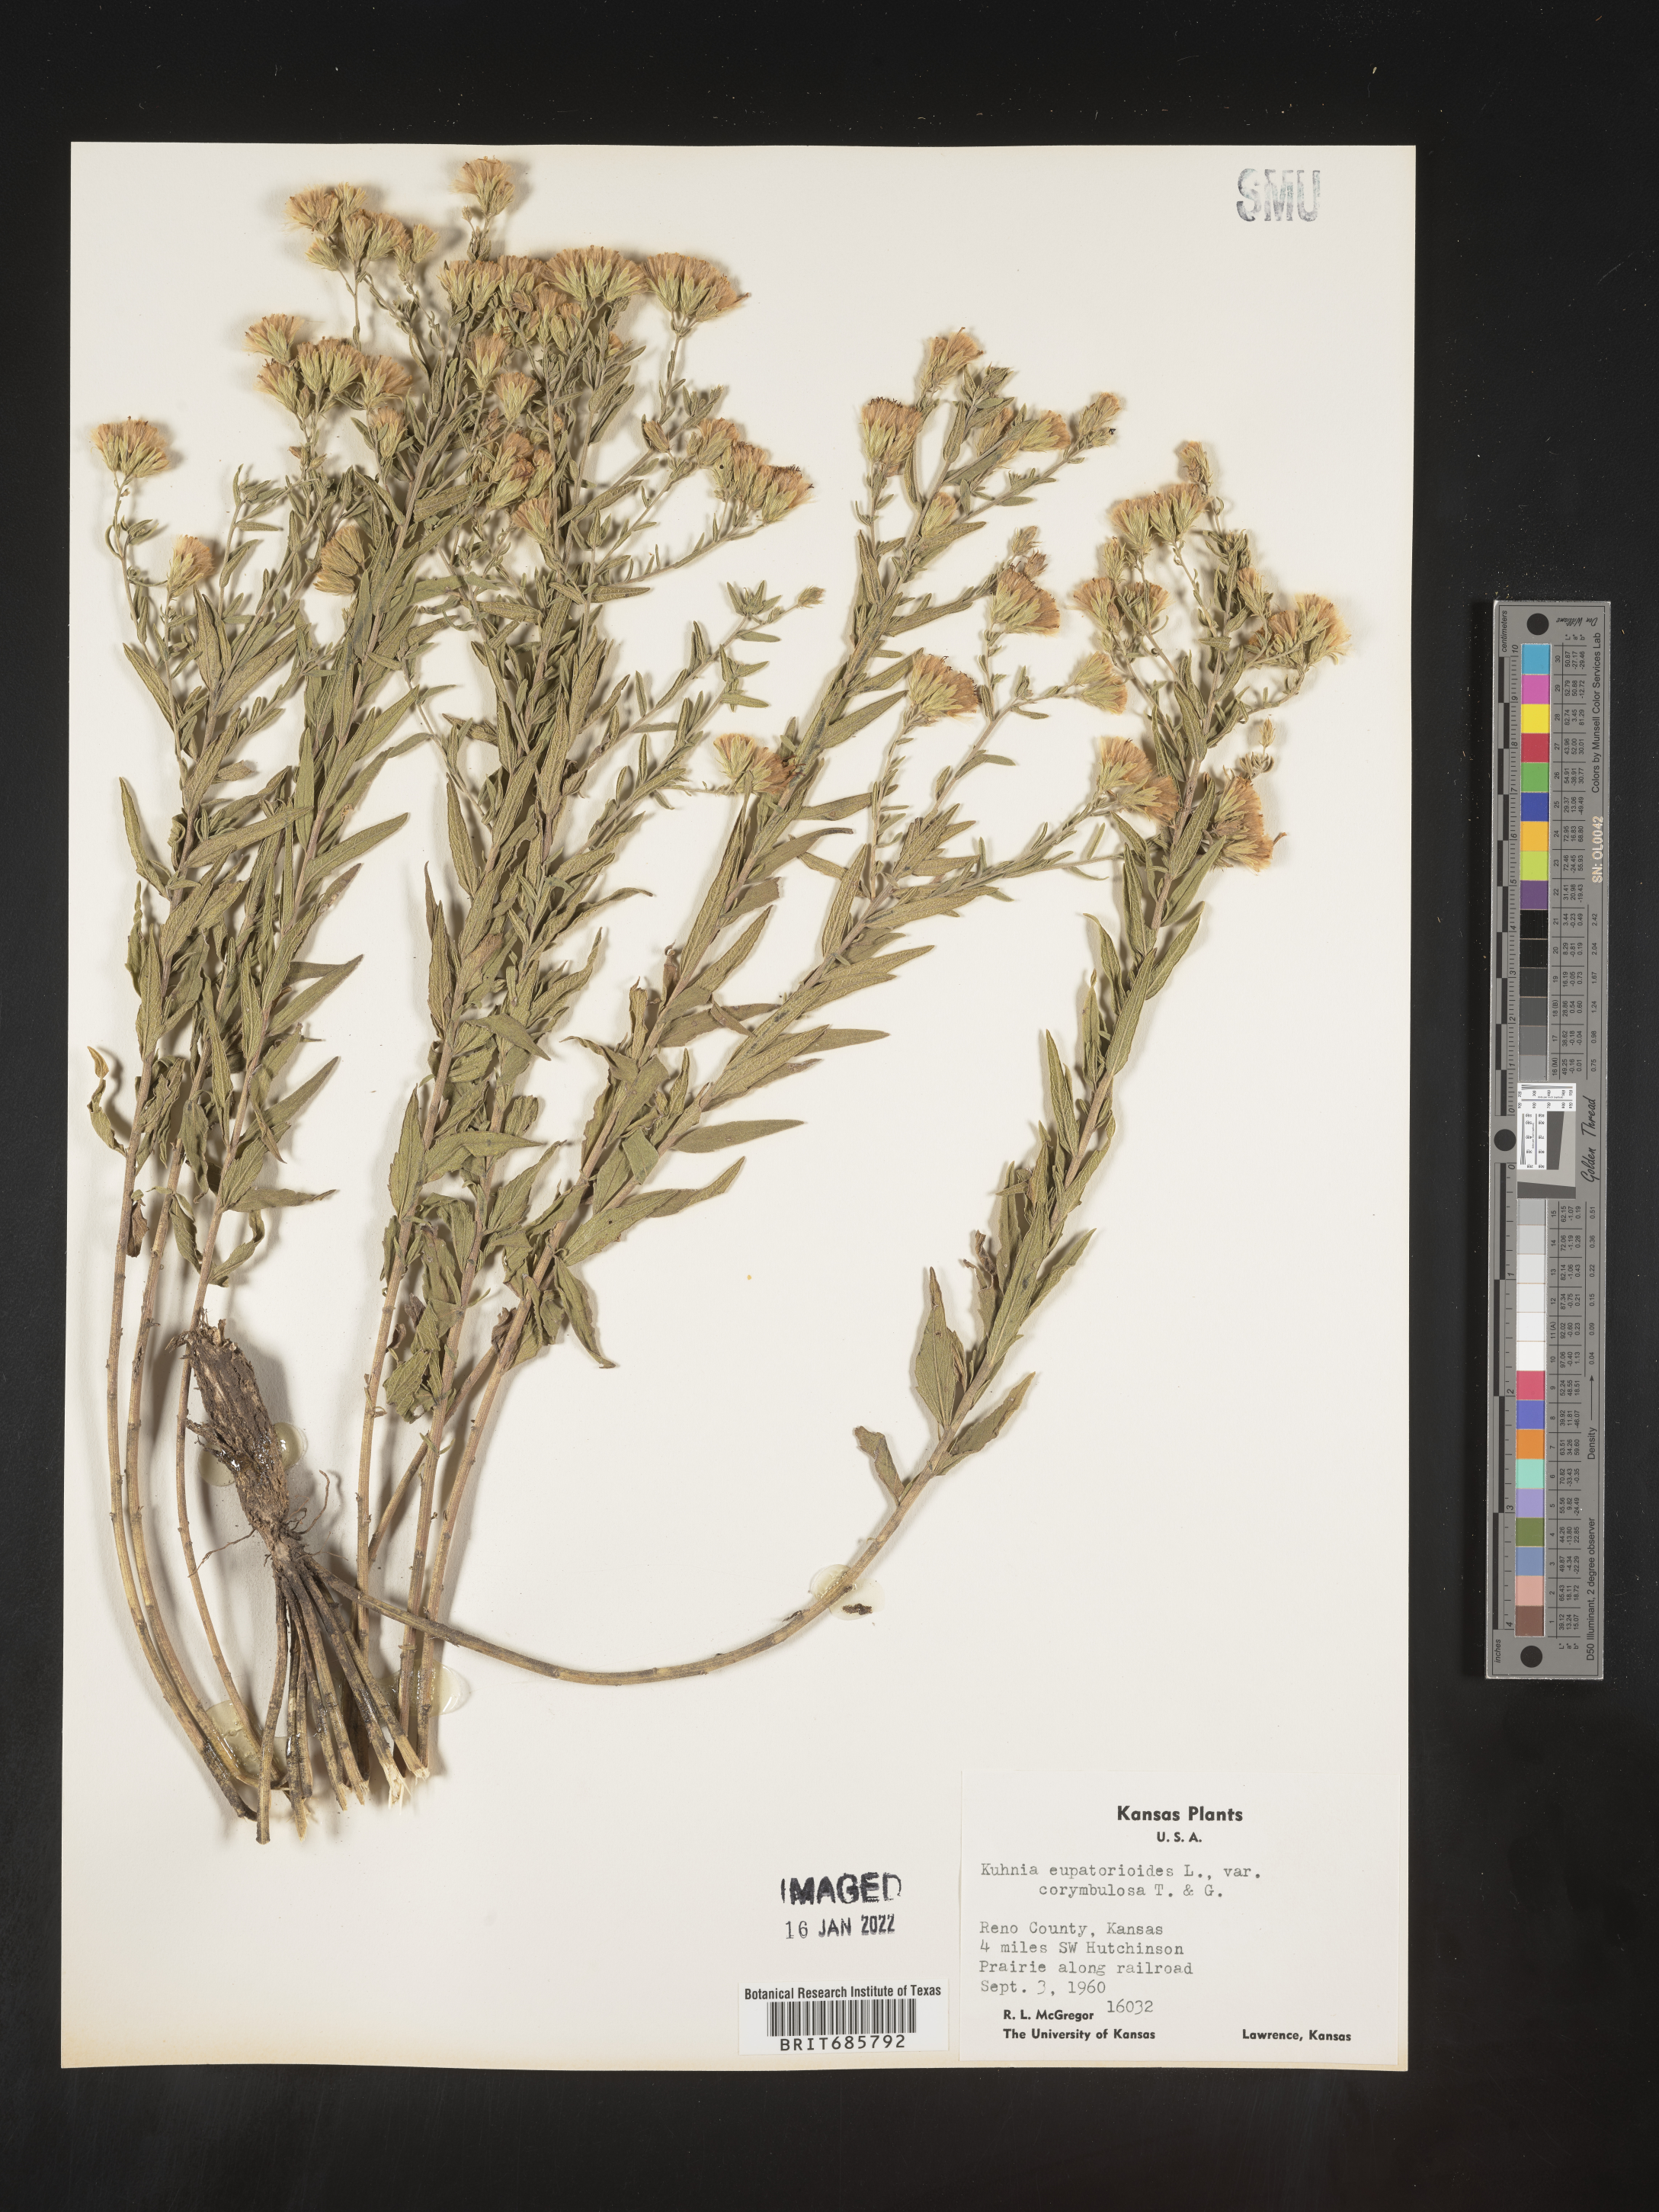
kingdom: Plantae
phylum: Tracheophyta
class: Magnoliopsida
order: Asterales
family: Asteraceae
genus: Brickellia
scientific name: Brickellia eupatorioides
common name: False boneset
